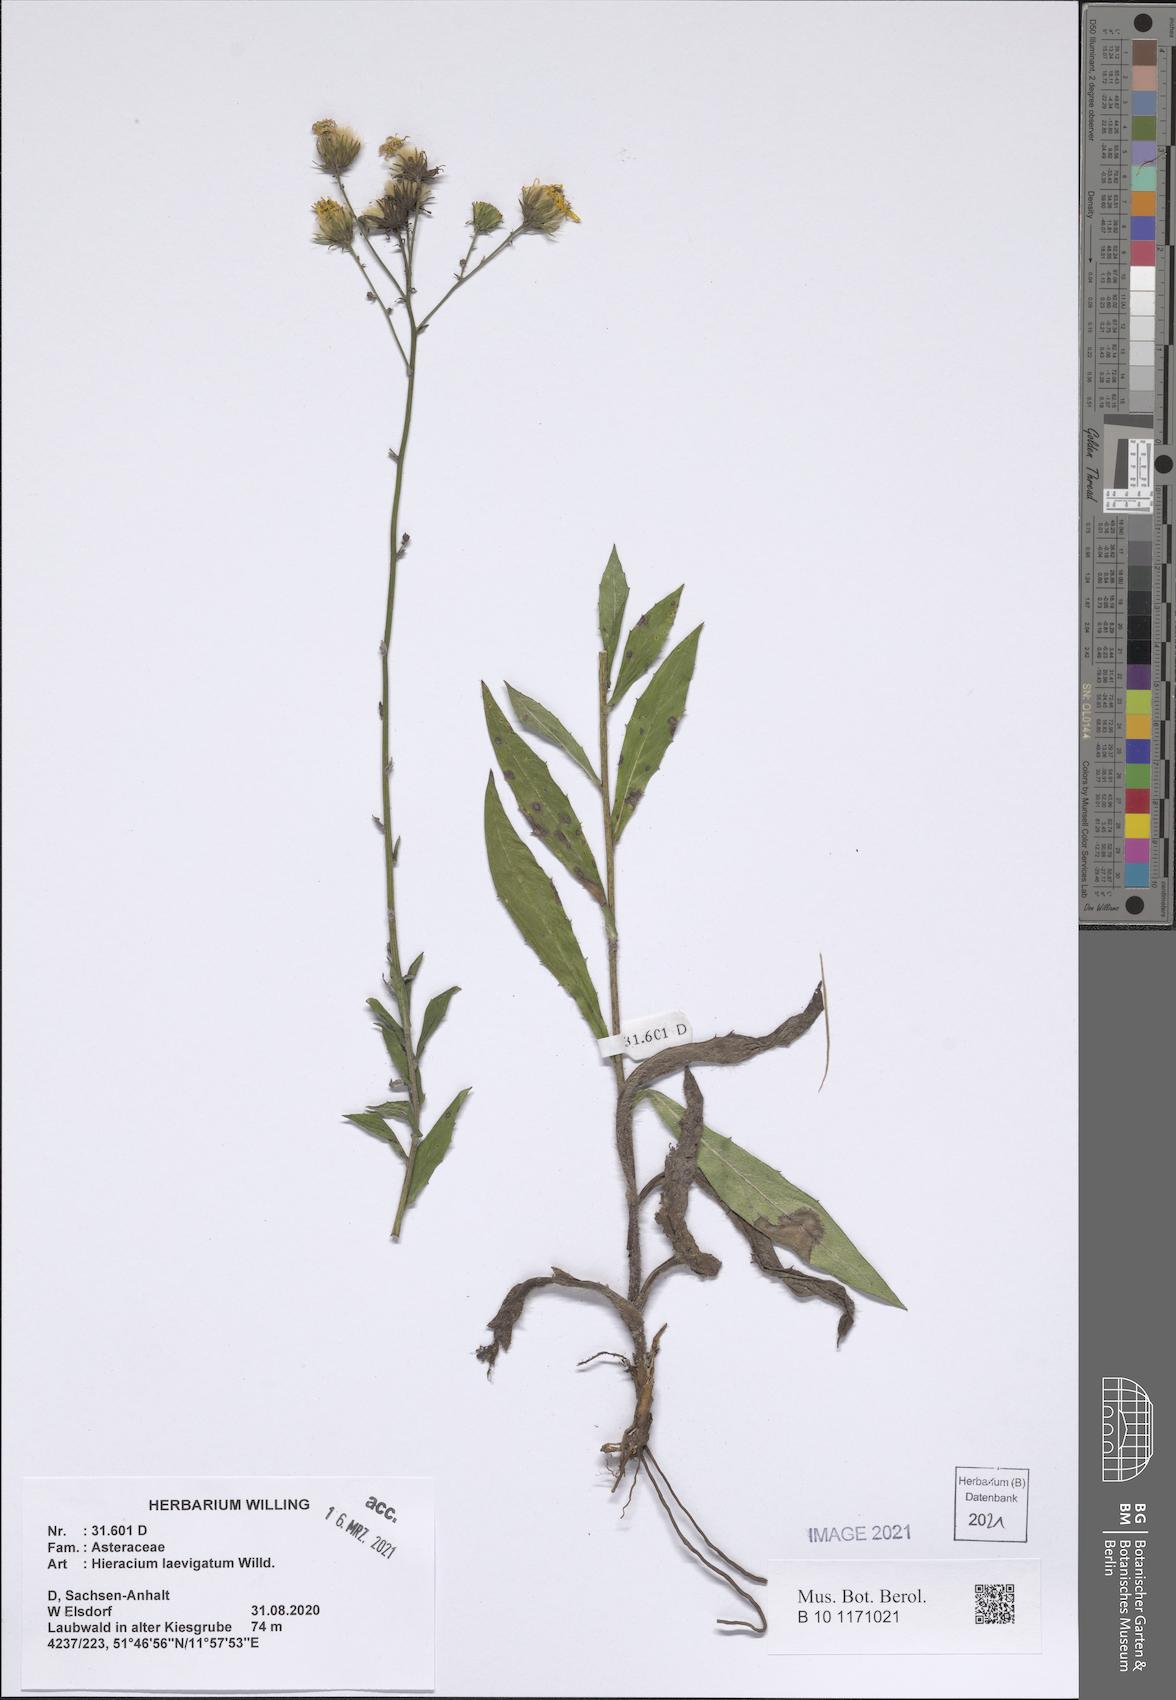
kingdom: Plantae
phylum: Tracheophyta
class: Magnoliopsida
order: Asterales
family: Asteraceae
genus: Hieracium
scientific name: Hieracium laevigatum
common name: Smooth hawkweed
